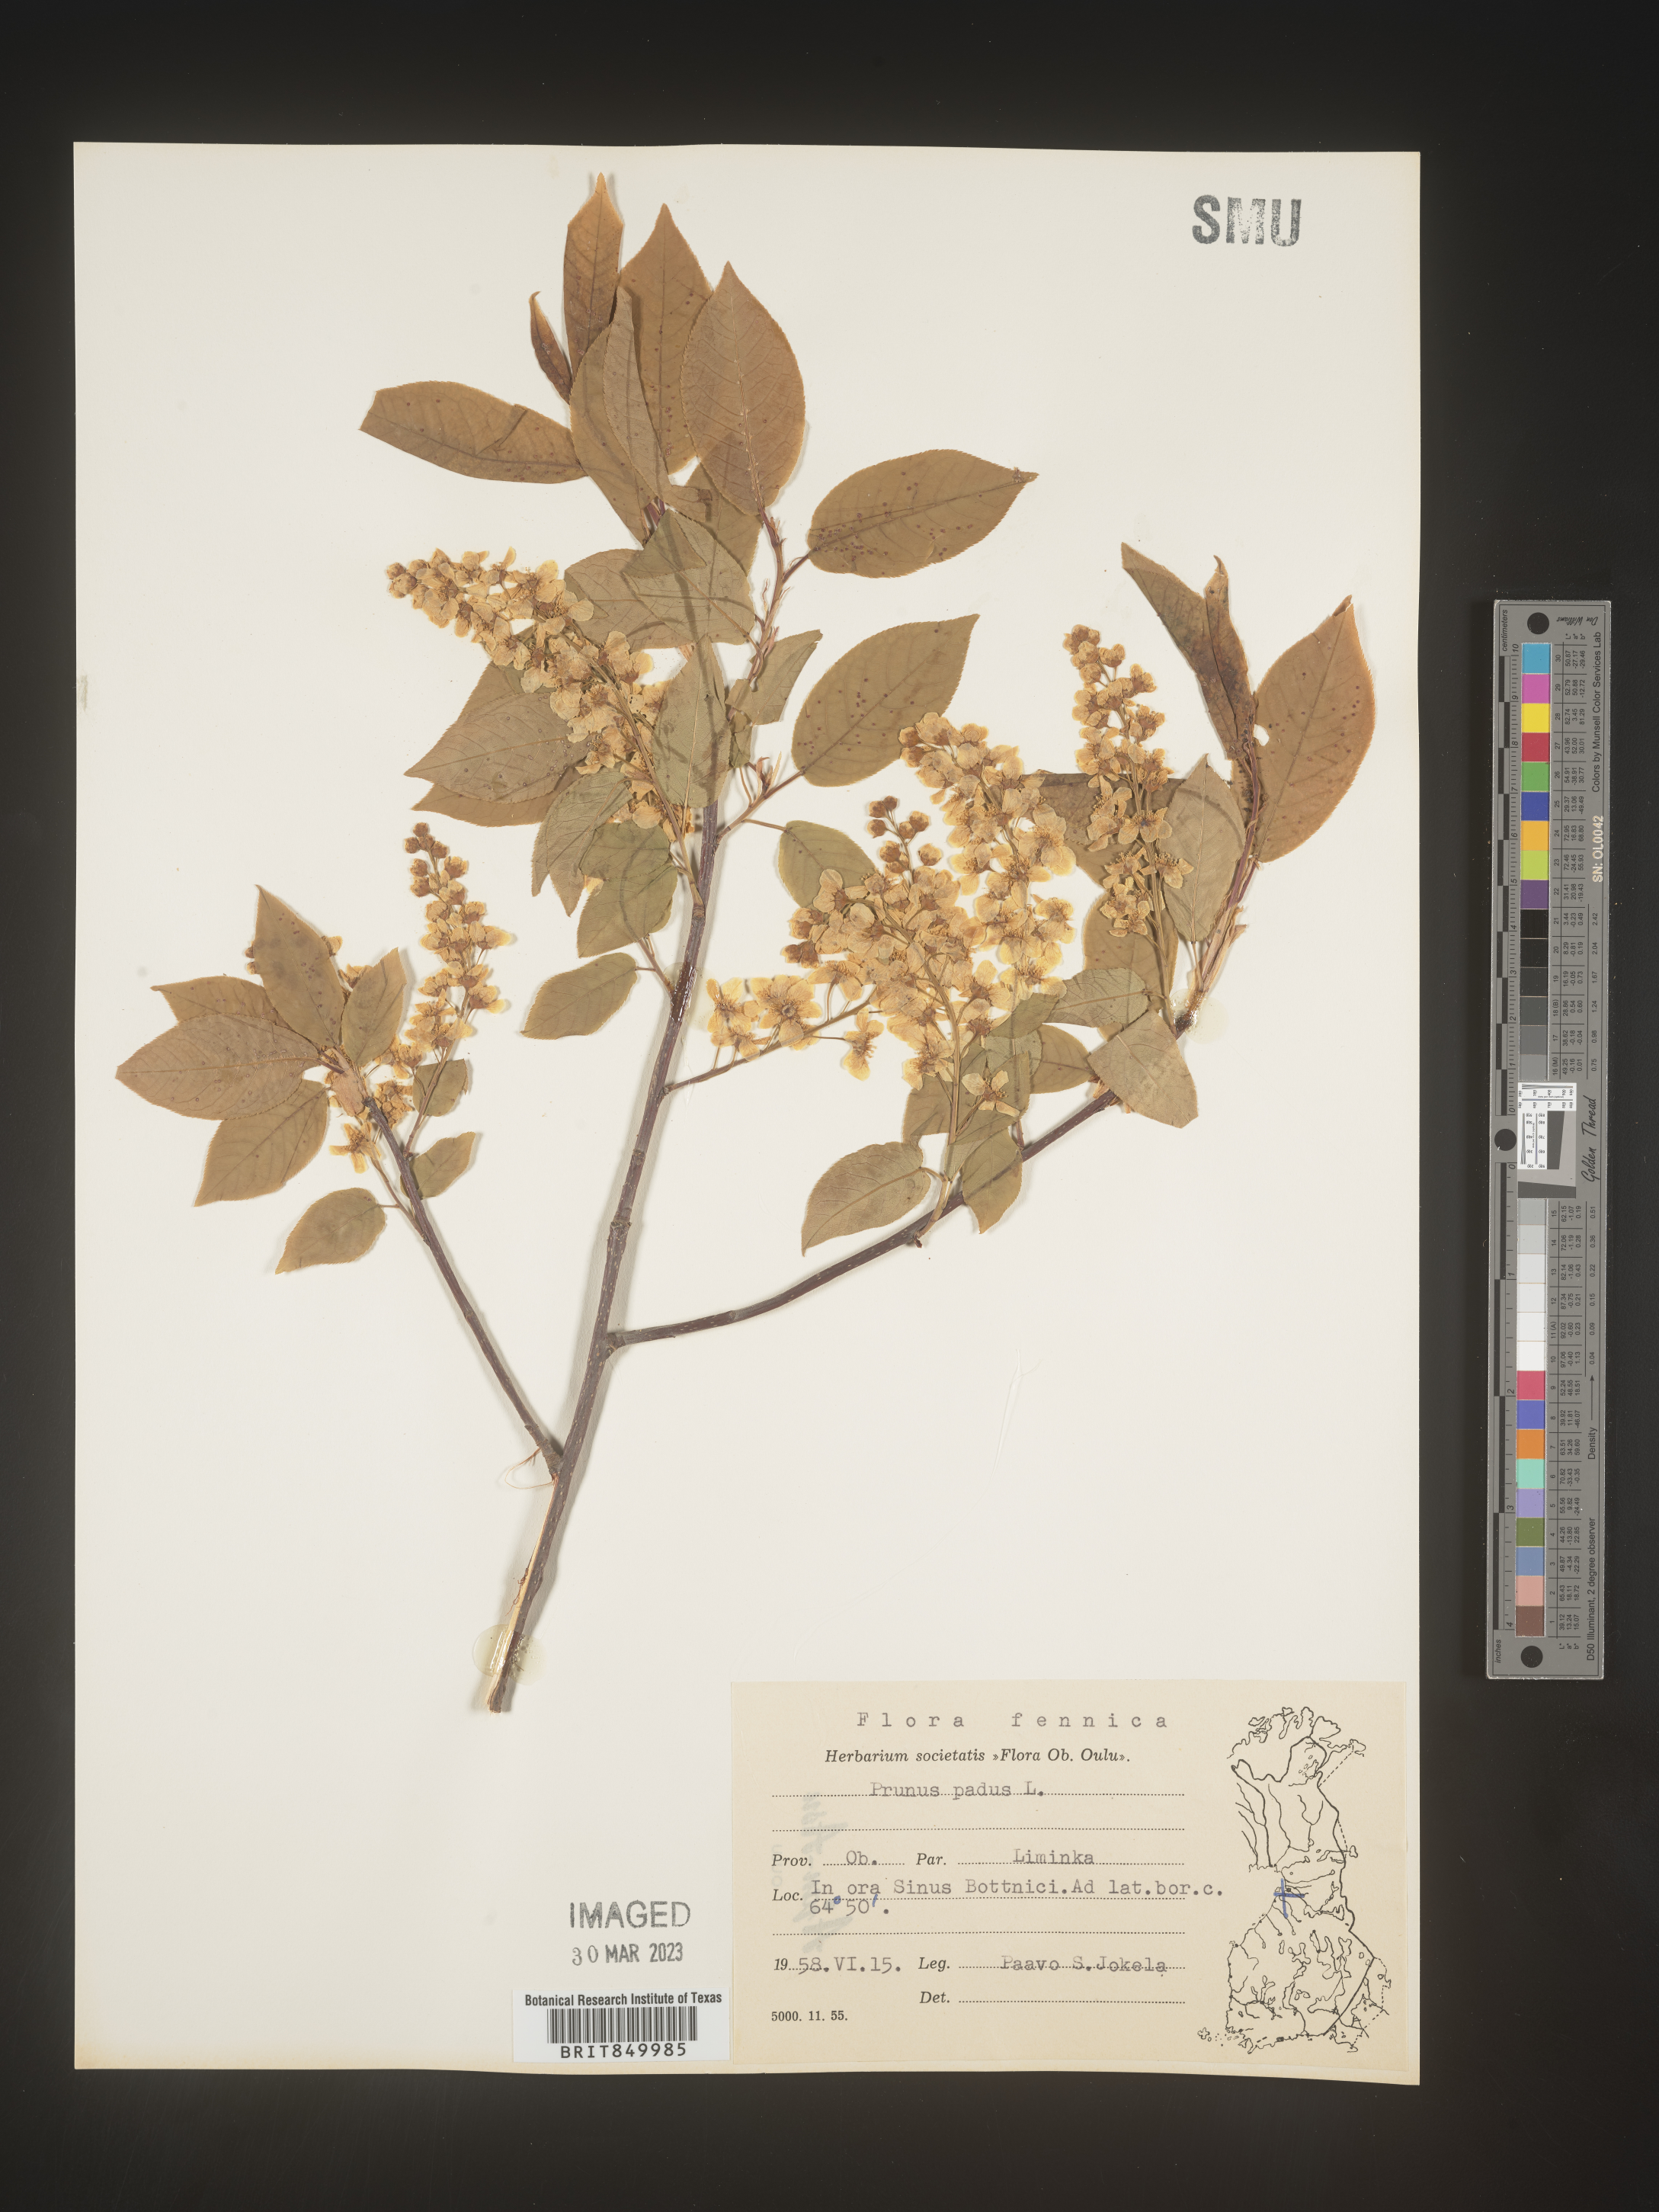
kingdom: Plantae
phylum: Tracheophyta
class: Magnoliopsida
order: Rosales
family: Rosaceae
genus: Prunus
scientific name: Prunus
